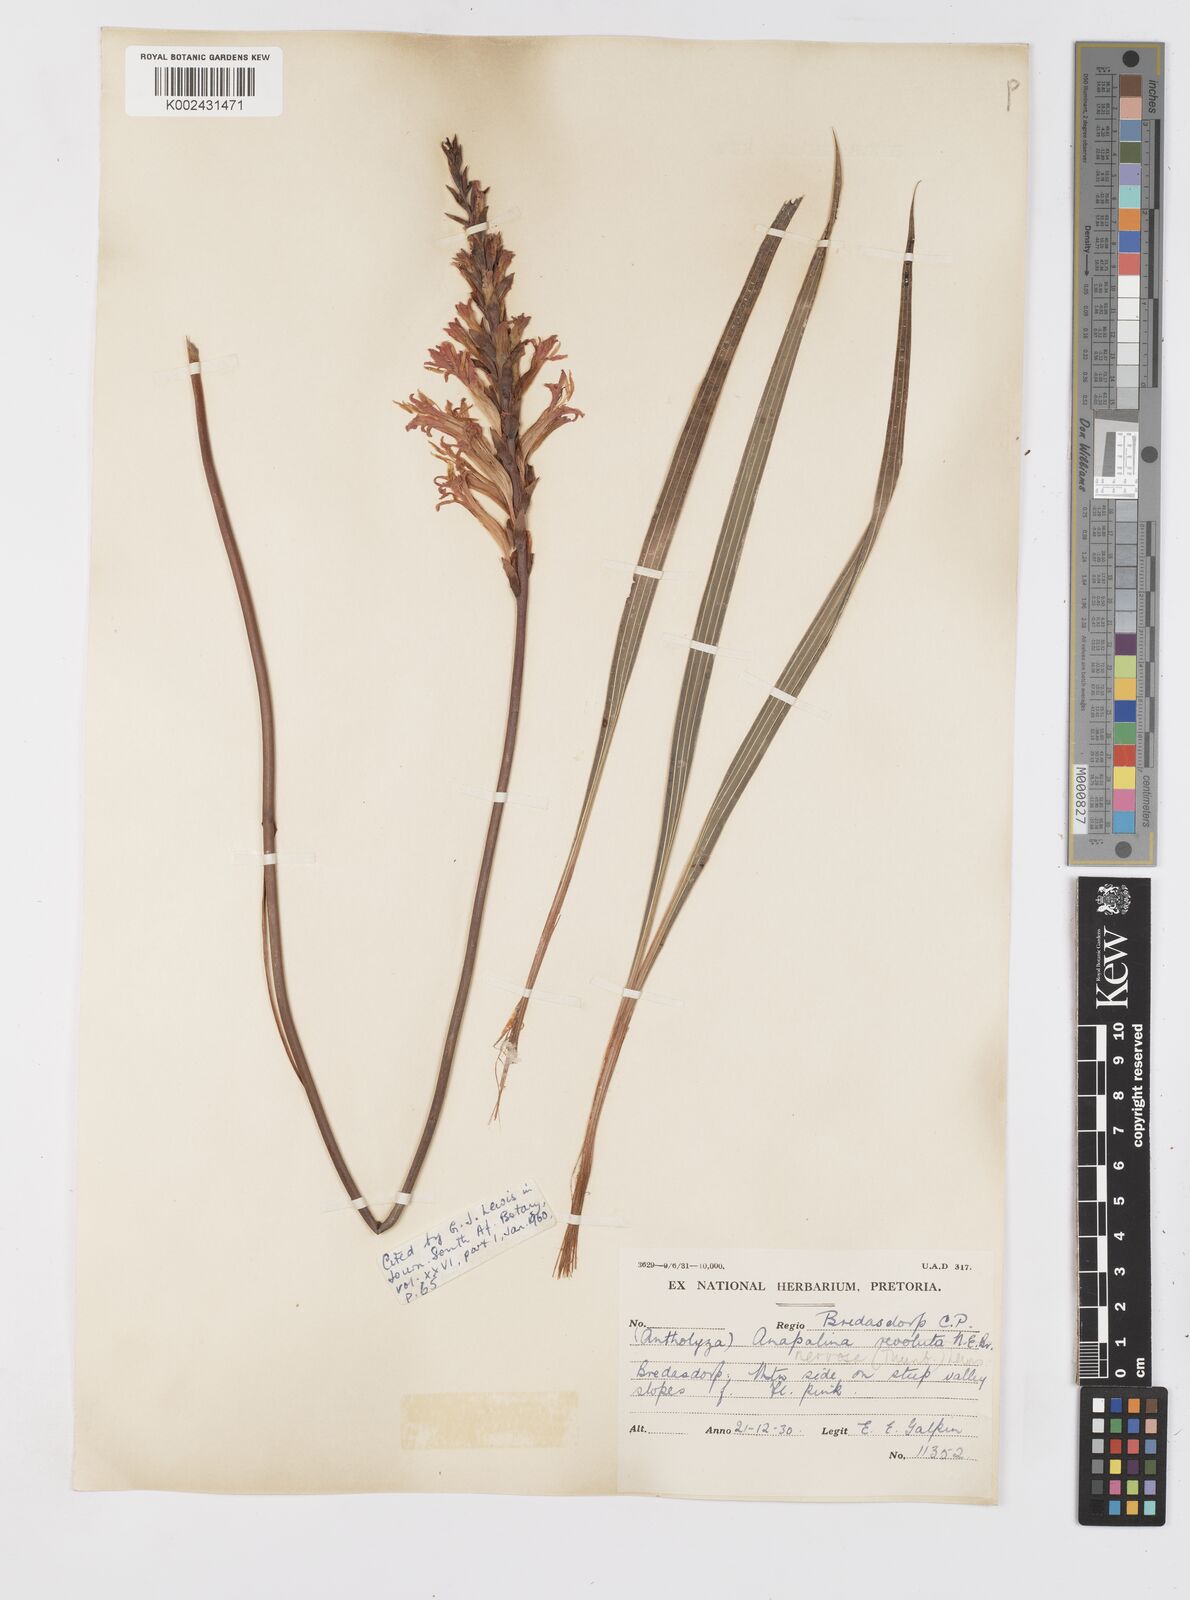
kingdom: Plantae
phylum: Tracheophyta
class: Liliopsida
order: Asparagales
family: Iridaceae
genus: Tritoniopsis
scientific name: Tritoniopsis nervosa
